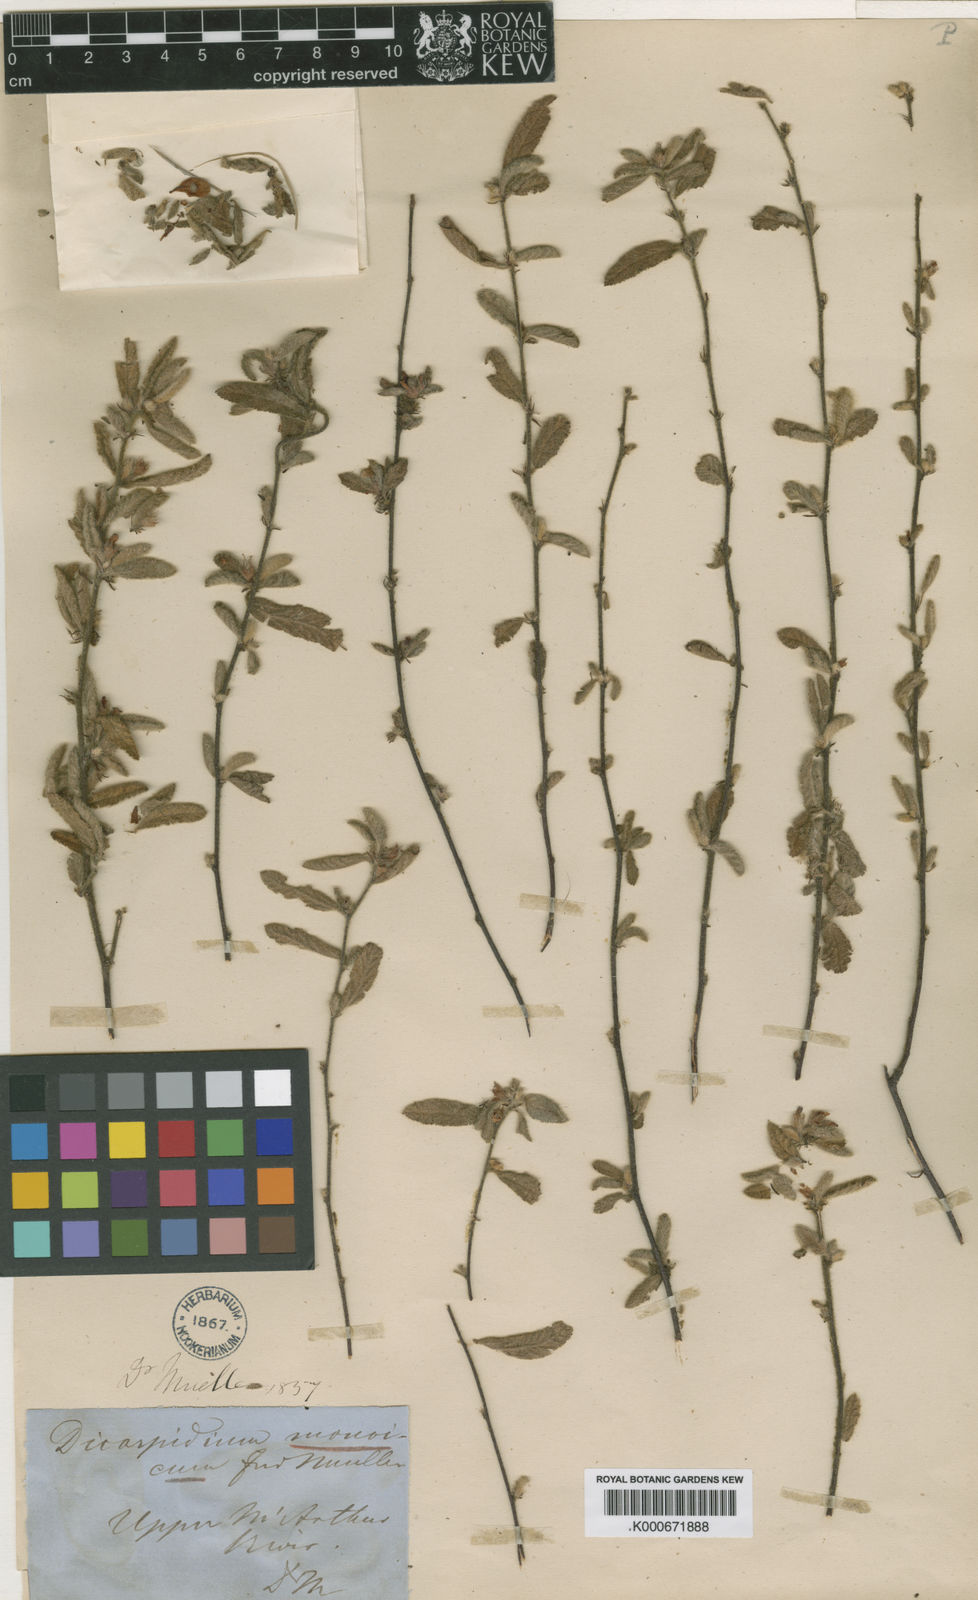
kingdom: Plantae
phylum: Tracheophyta
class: Magnoliopsida
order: Malvales
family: Malvaceae
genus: Dicarpidium
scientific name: Dicarpidium monoicum
